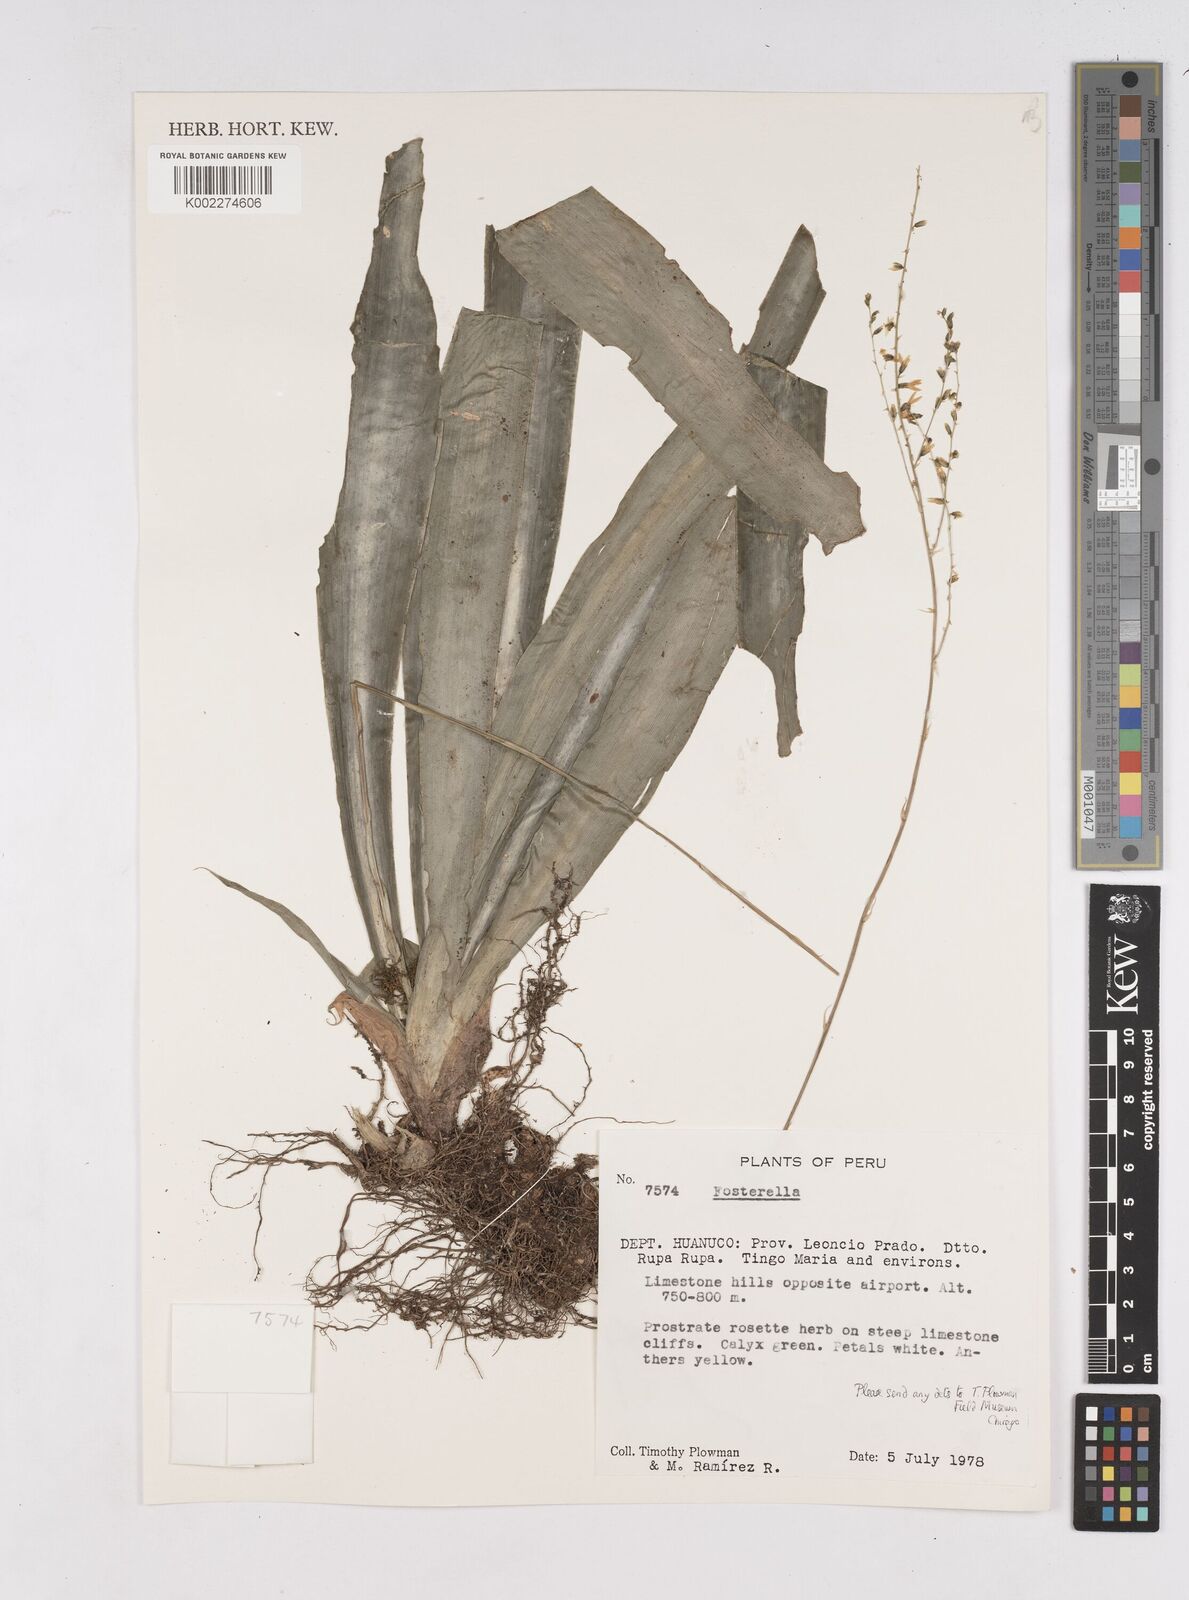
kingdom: Plantae
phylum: Tracheophyta
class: Liliopsida
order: Poales
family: Bromeliaceae
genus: Fosterella
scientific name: Fosterella
